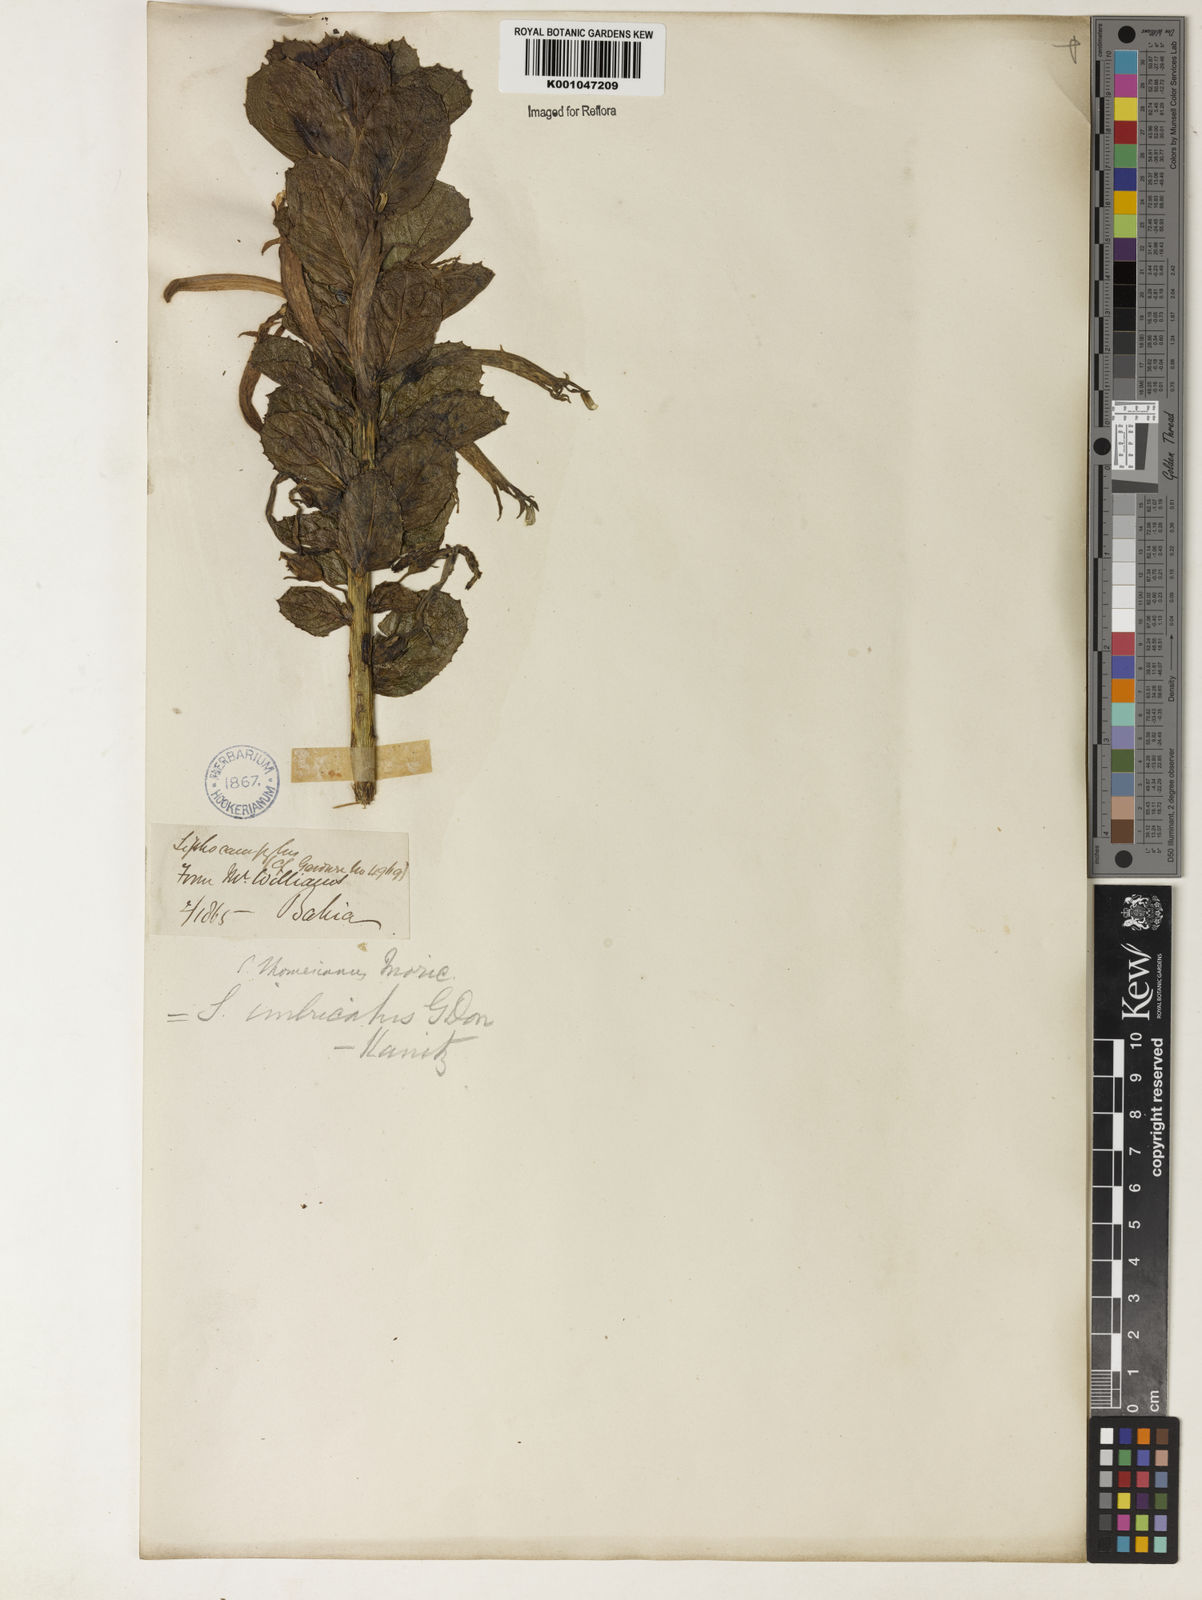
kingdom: Plantae
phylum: Tracheophyta
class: Magnoliopsida
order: Asterales
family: Campanulaceae
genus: Siphocampylus
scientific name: Siphocampylus imbricatus
